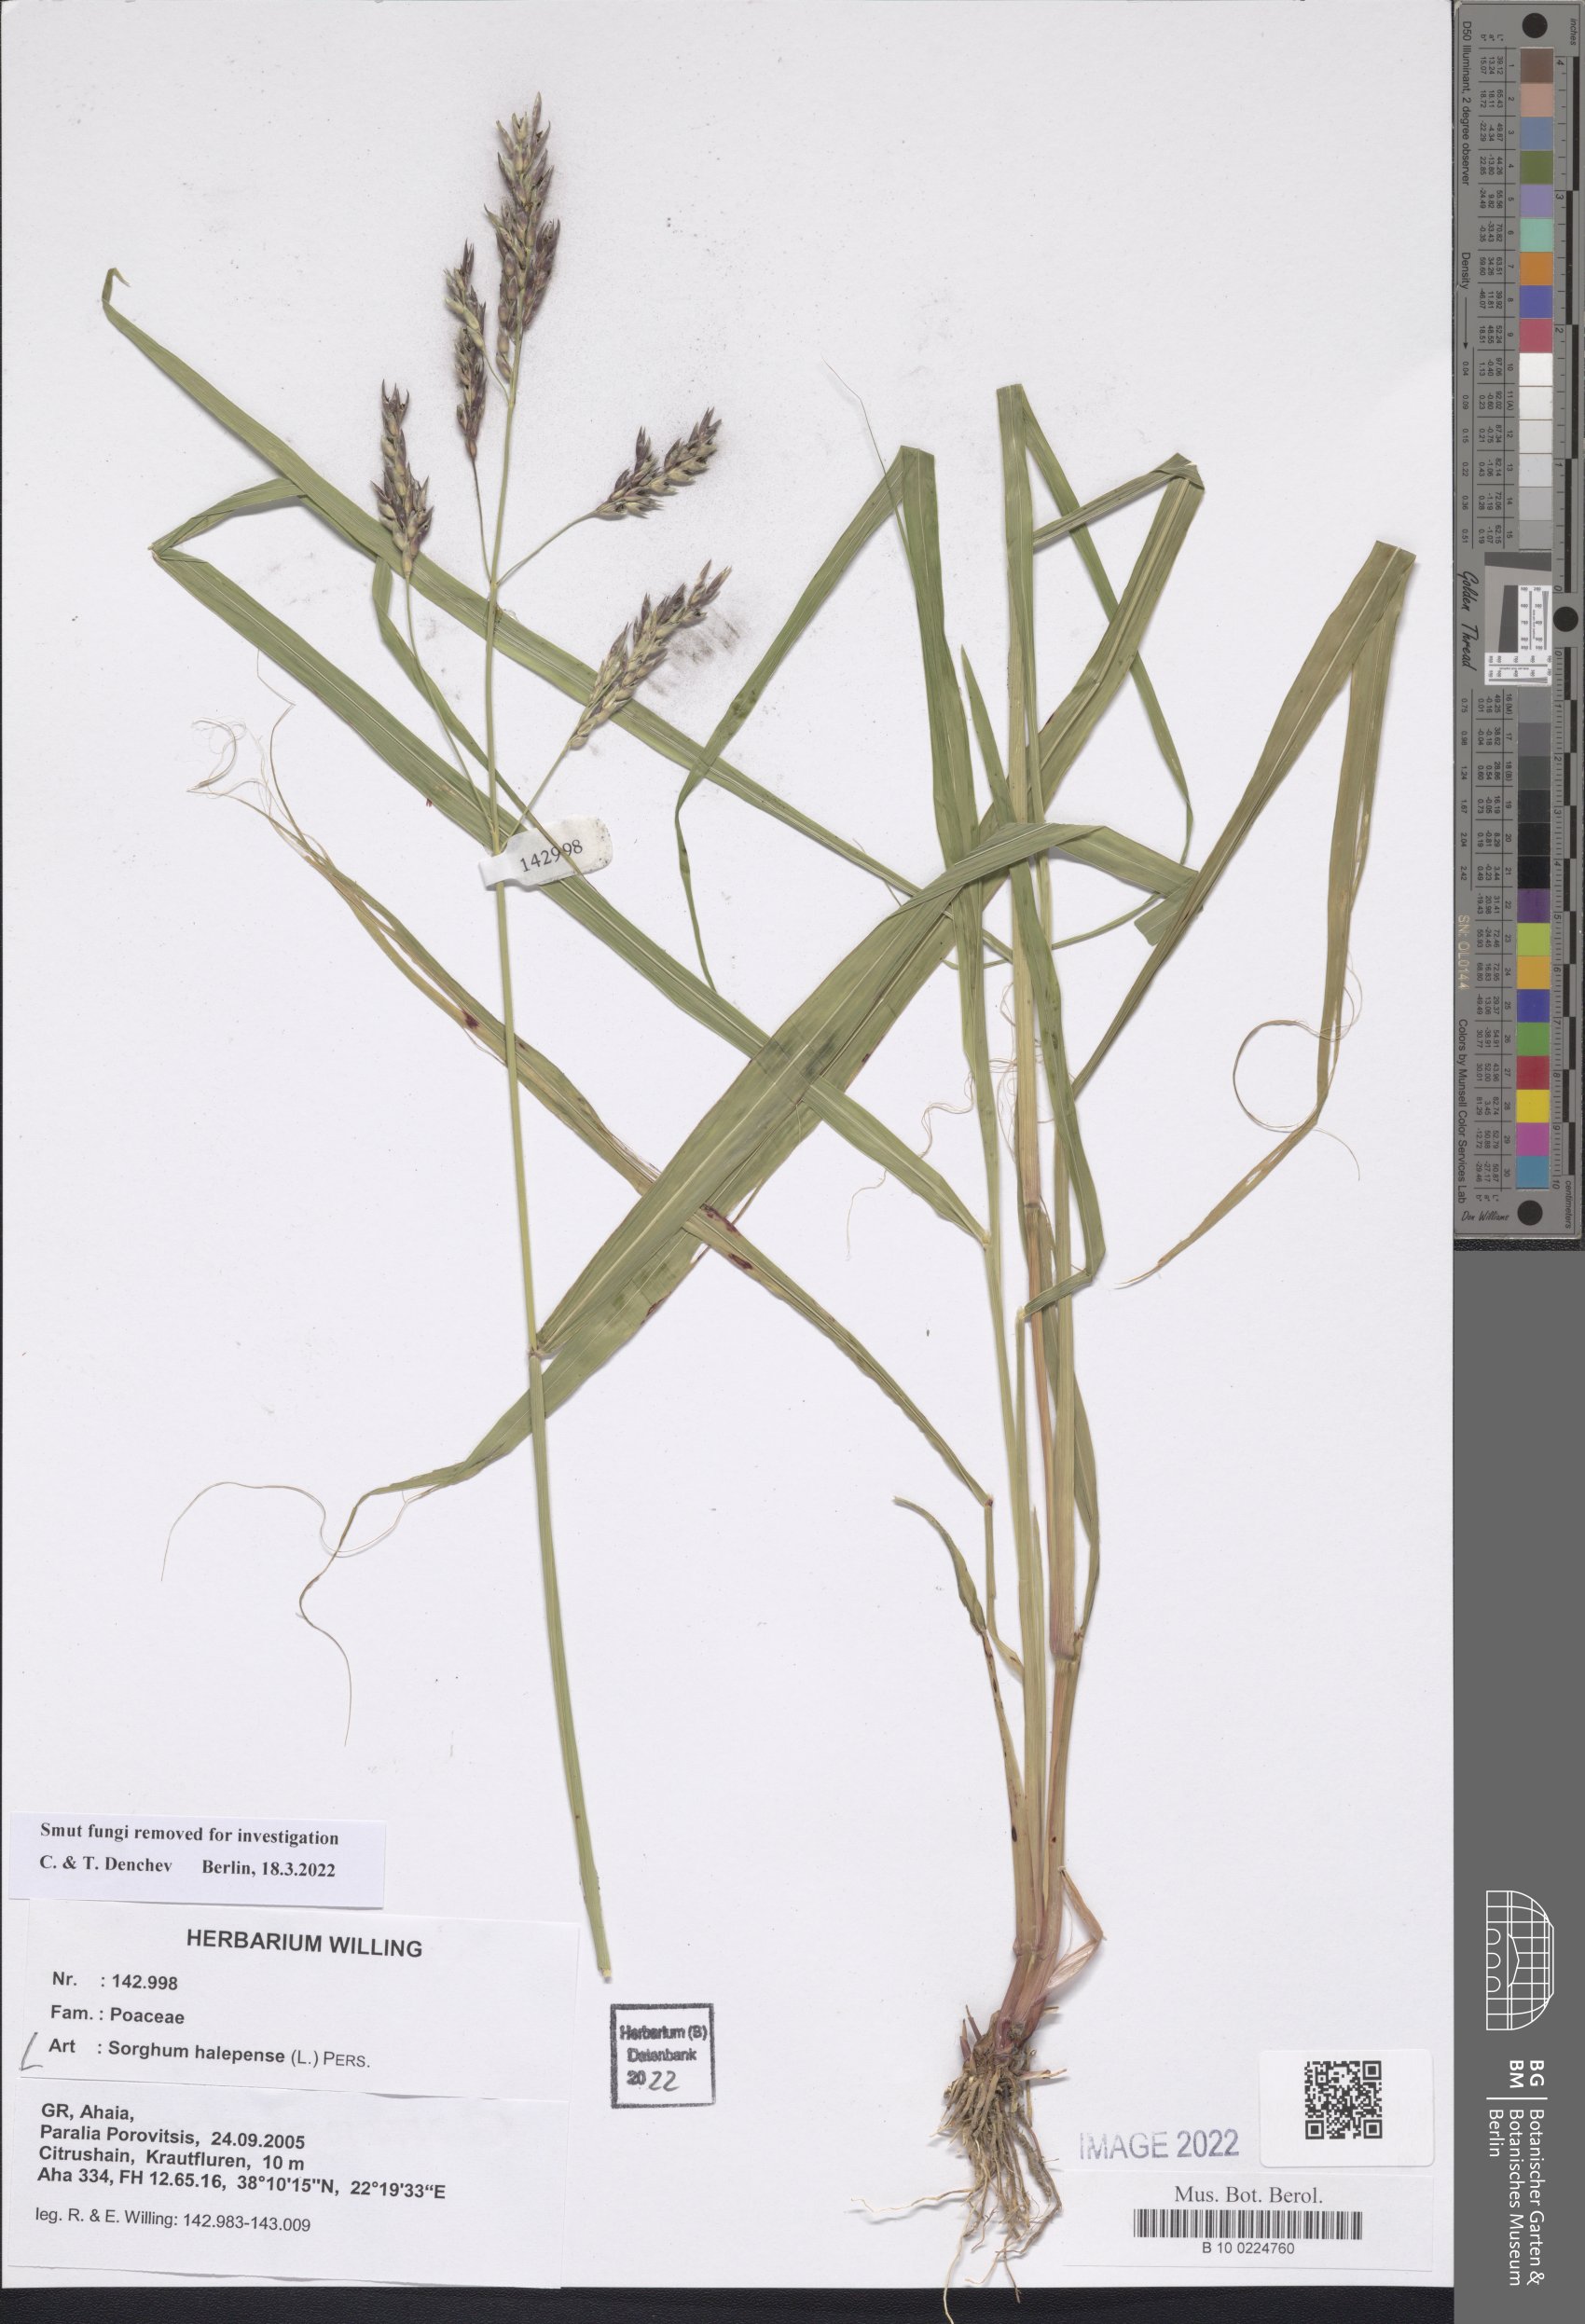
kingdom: Plantae
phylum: Tracheophyta
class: Liliopsida
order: Poales
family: Poaceae
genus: Sorghum
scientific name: Sorghum halepense
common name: Johnson-grass
